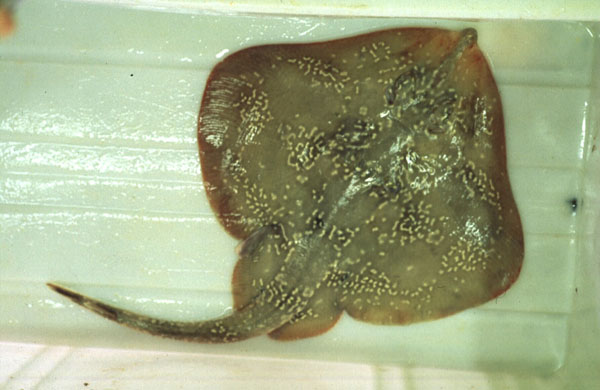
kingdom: Animalia
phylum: Chordata
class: Elasmobranchii
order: Rajiformes
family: Rajidae
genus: Leucoraja
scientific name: Leucoraja wallacei
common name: Blancmange skate
